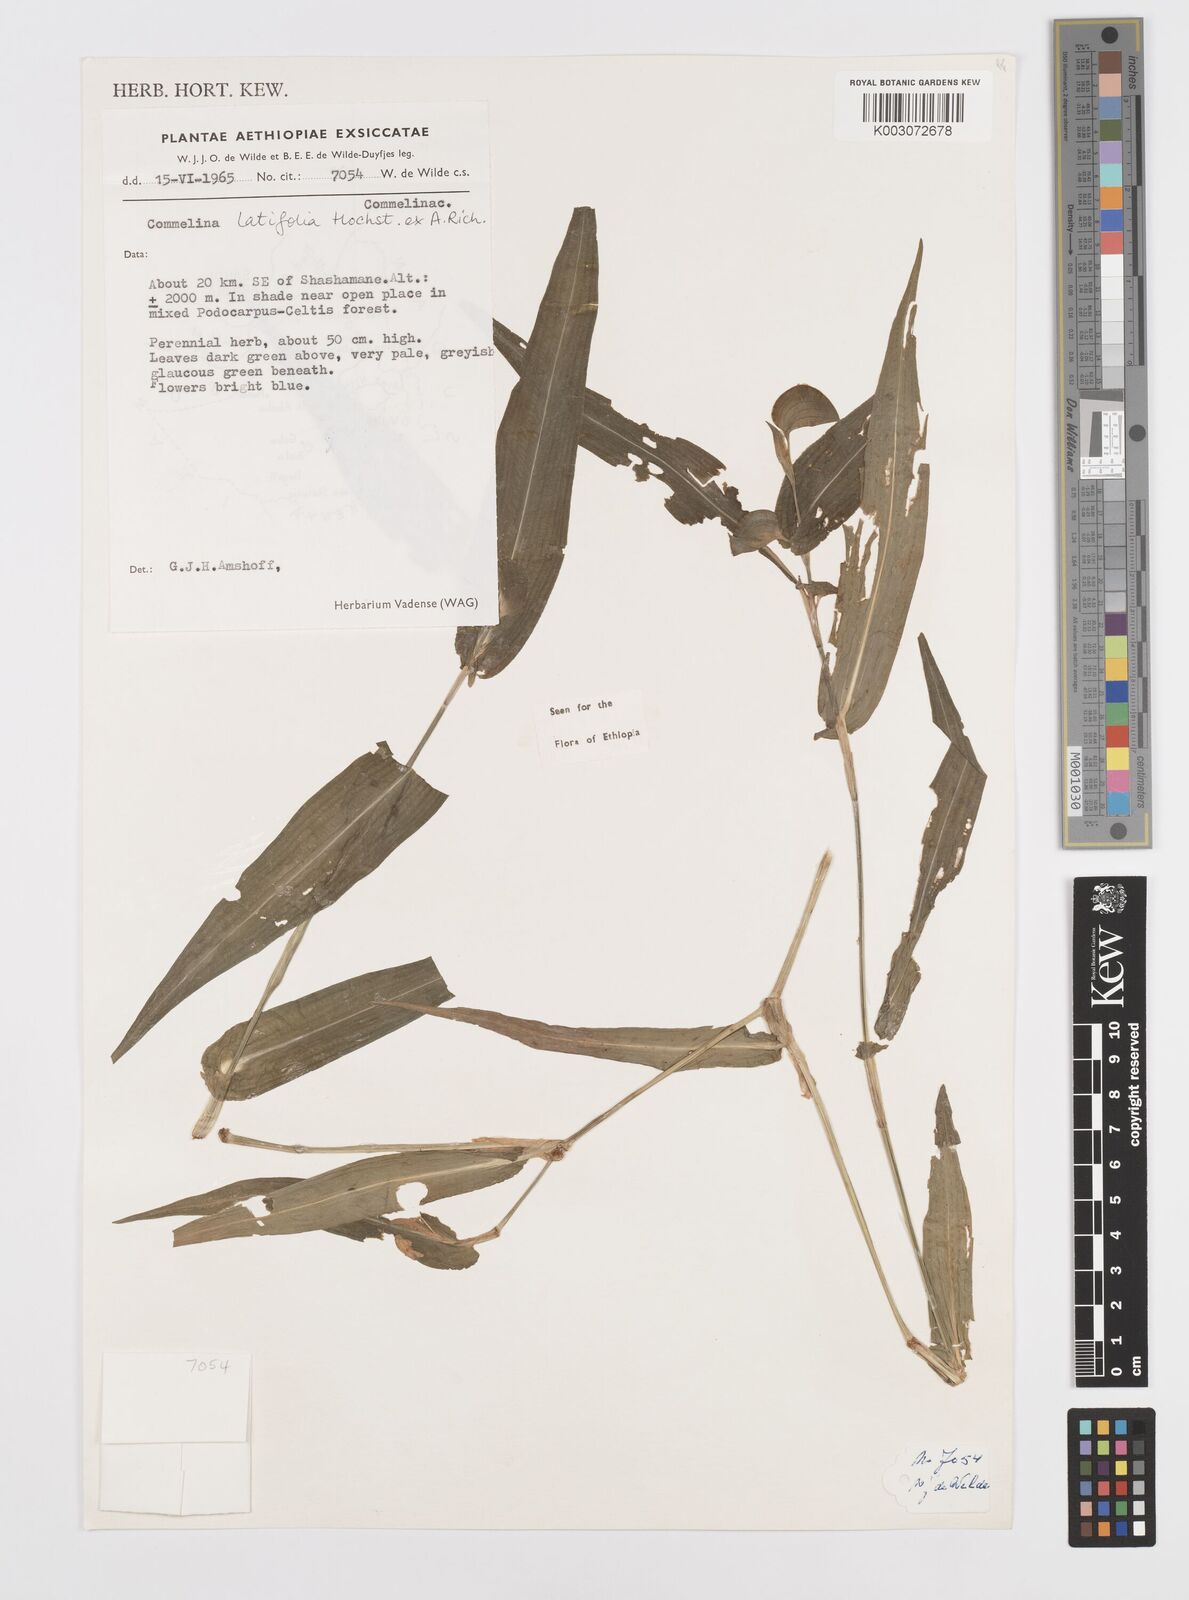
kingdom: Plantae
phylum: Tracheophyta
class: Liliopsida
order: Commelinales
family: Commelinaceae
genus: Commelina
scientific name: Commelina imberbis
